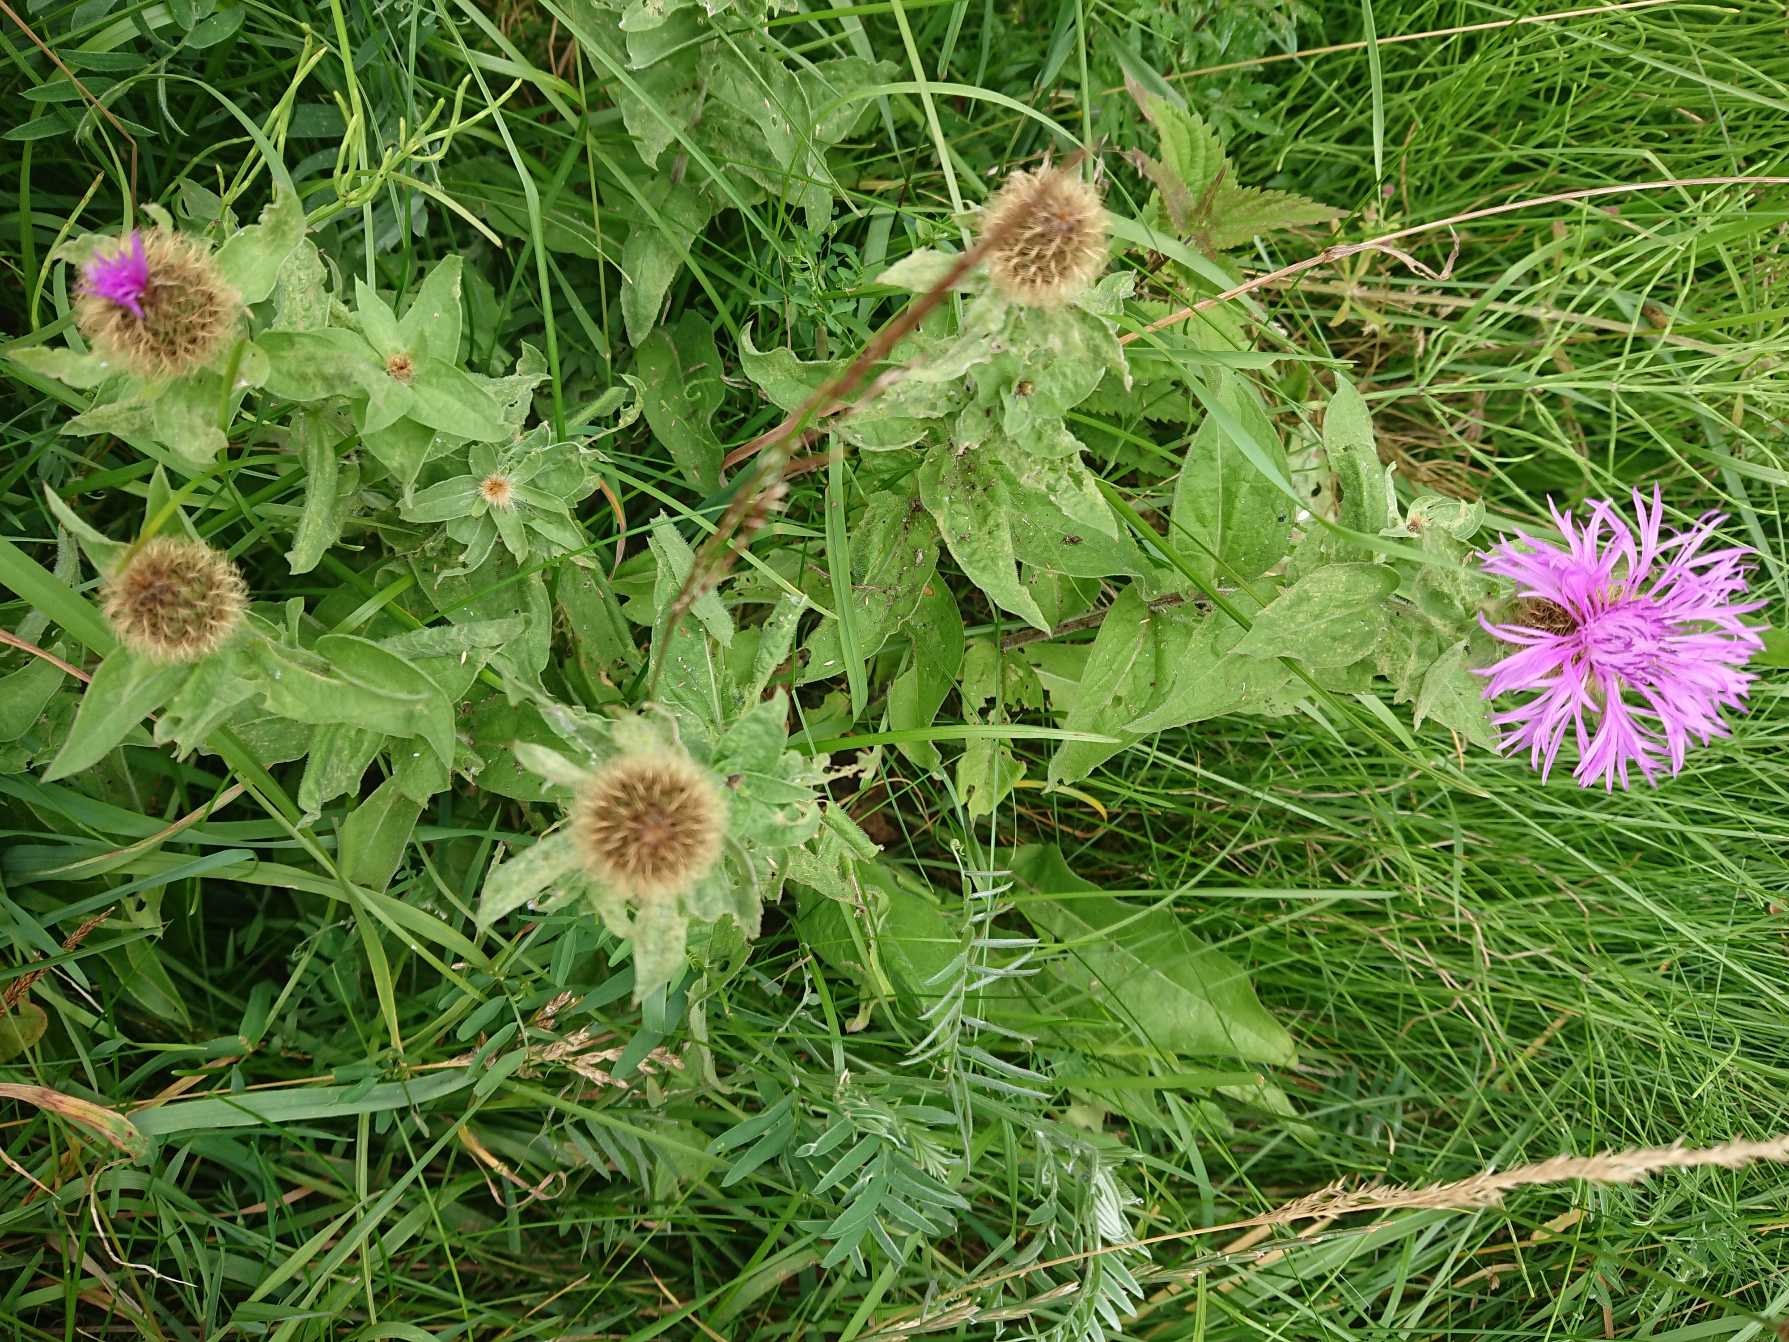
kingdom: Plantae
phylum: Tracheophyta
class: Magnoliopsida
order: Asterales
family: Asteraceae
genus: Centaurea
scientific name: Centaurea pseudophrygia
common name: Fjer-knopurt
